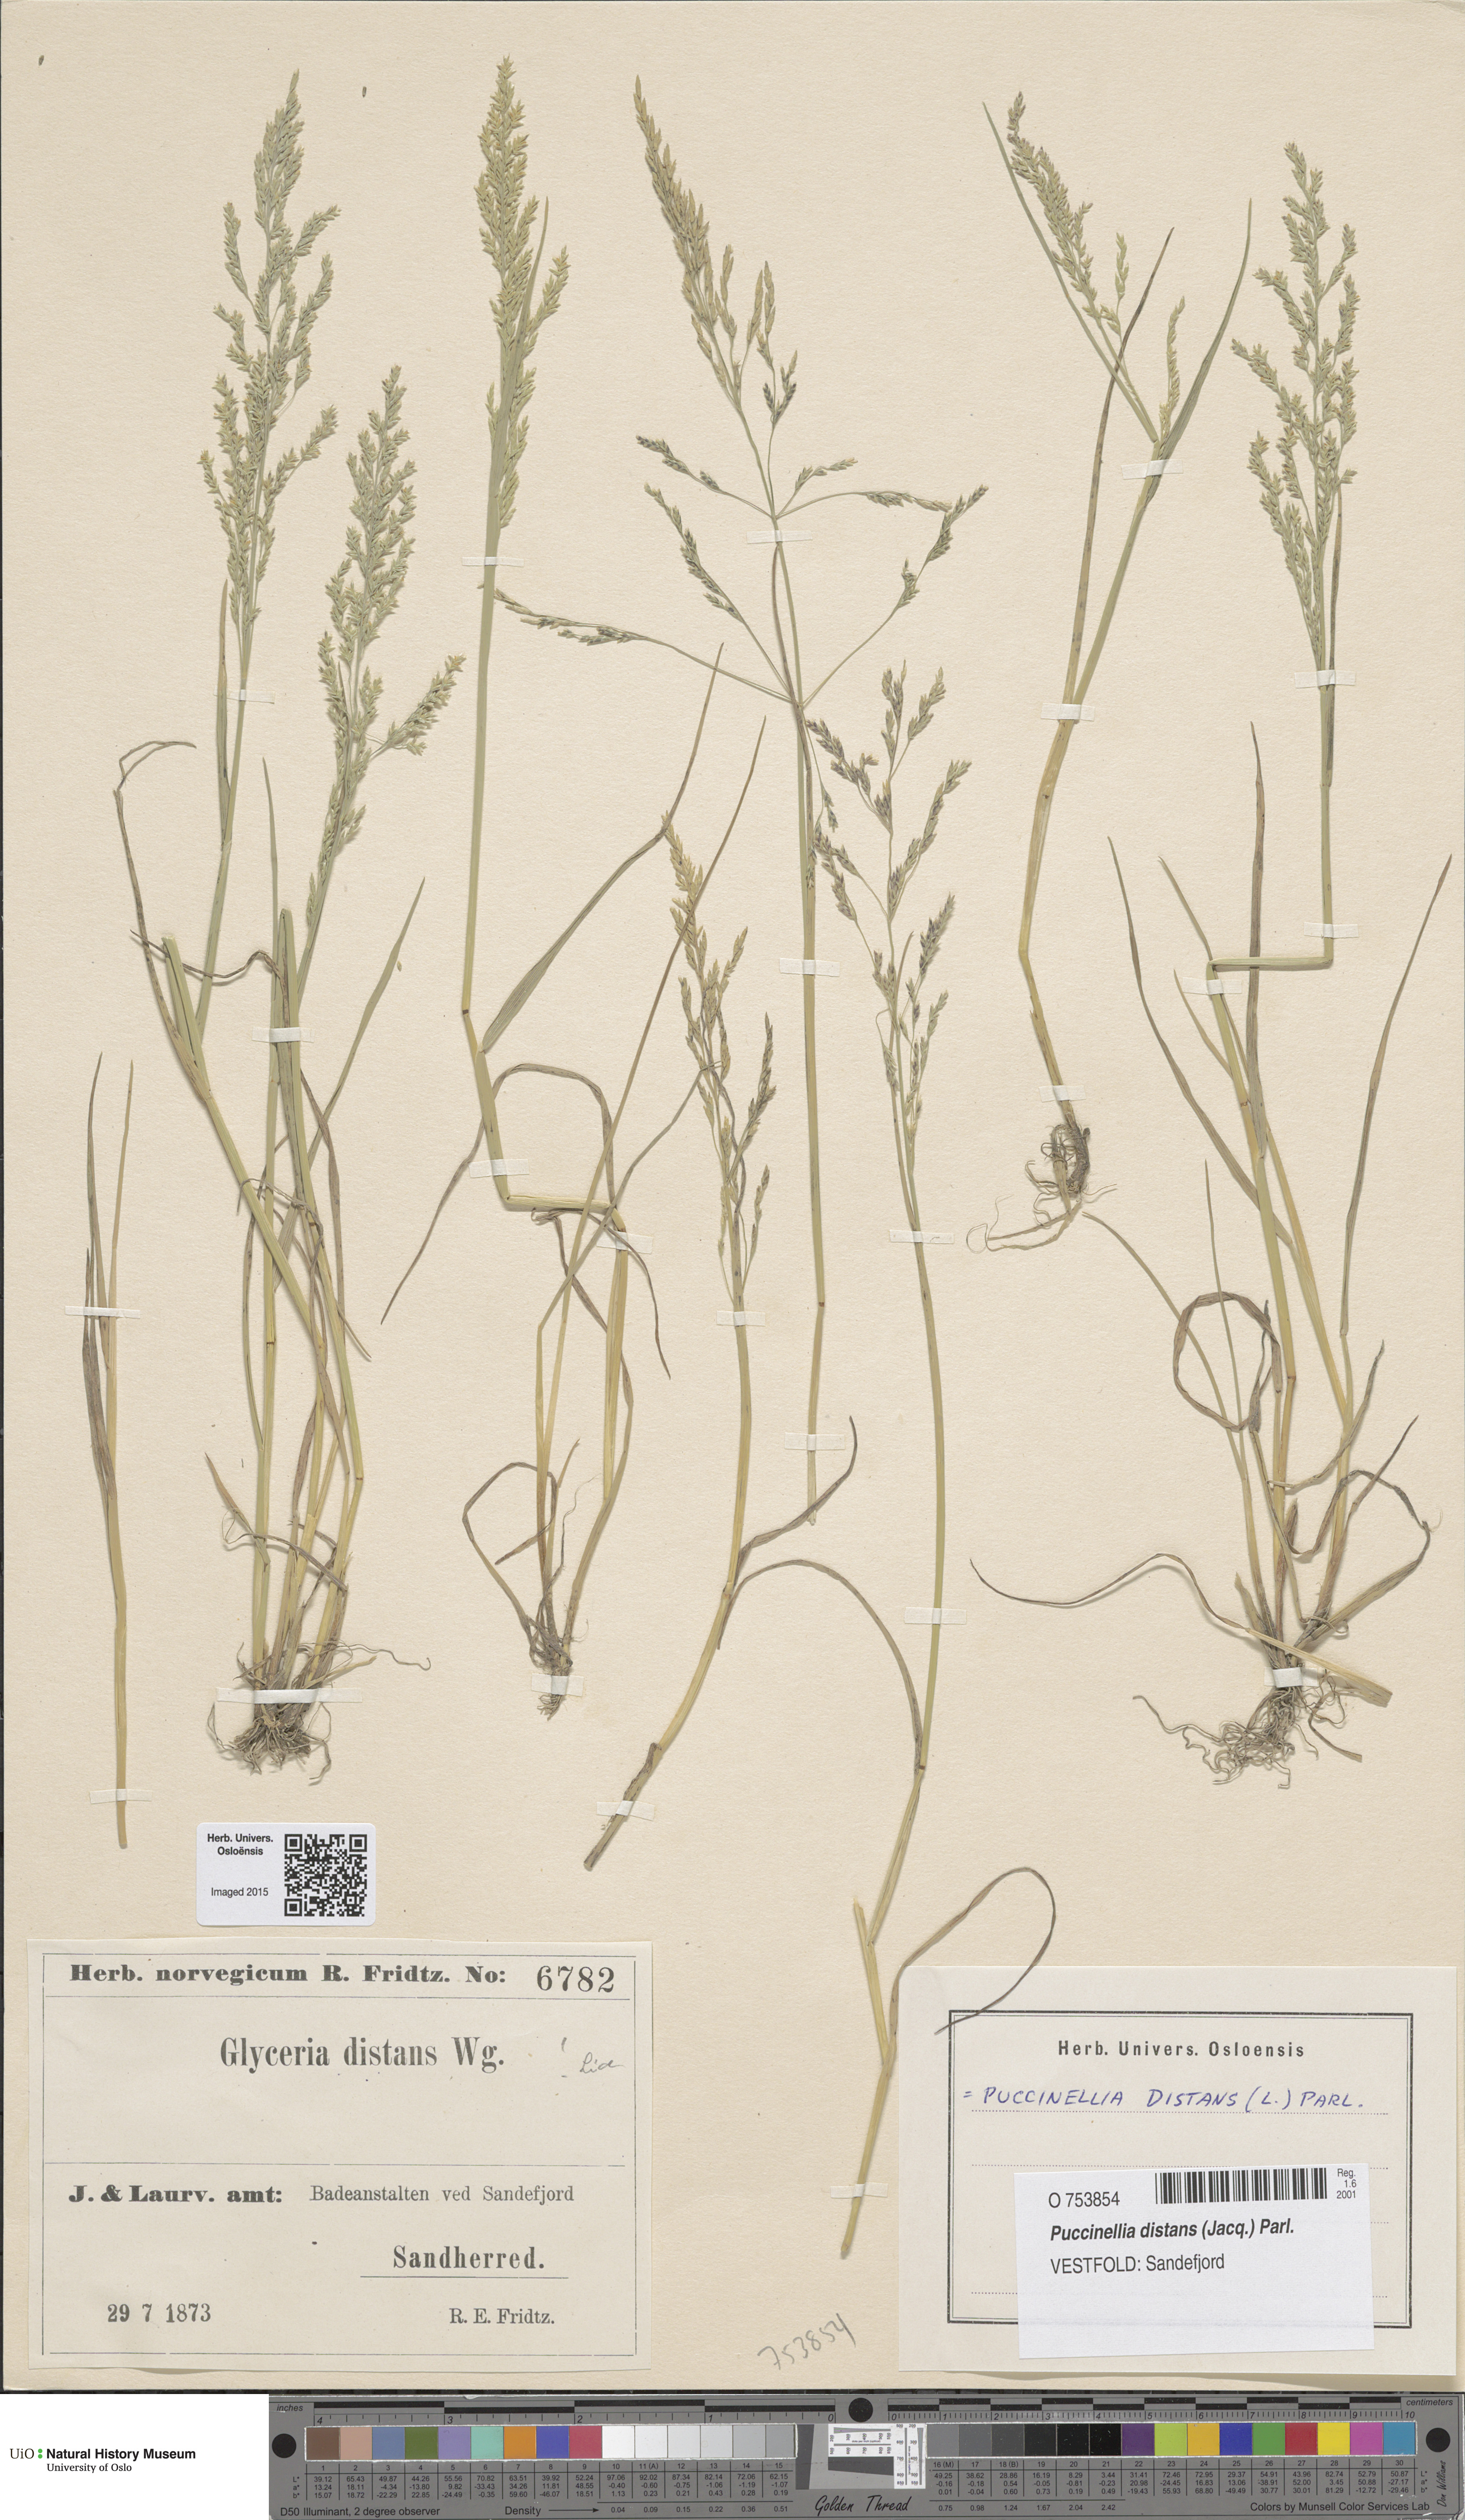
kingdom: Plantae
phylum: Tracheophyta
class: Liliopsida
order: Poales
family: Poaceae
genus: Puccinellia
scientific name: Puccinellia distans
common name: Weeping alkaligrass
